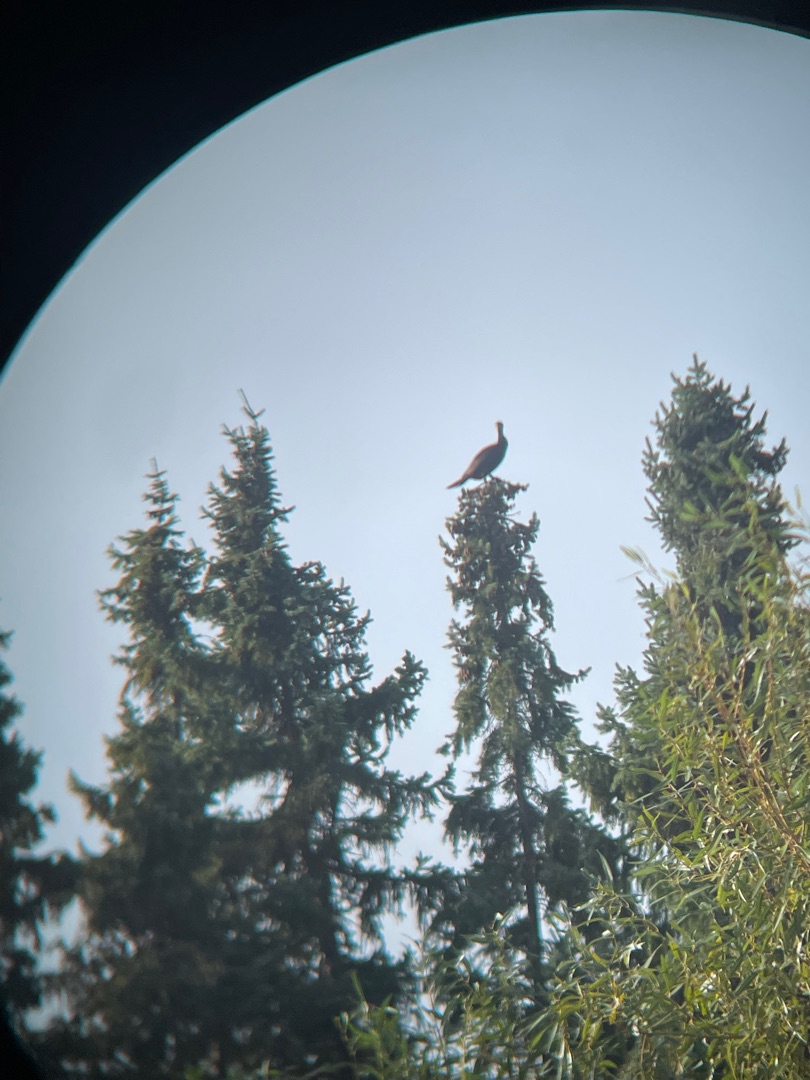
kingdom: Animalia
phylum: Chordata
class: Aves
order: Suliformes
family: Phalacrocoracidae
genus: Phalacrocorax
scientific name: Phalacrocorax carbo
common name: Skarv
